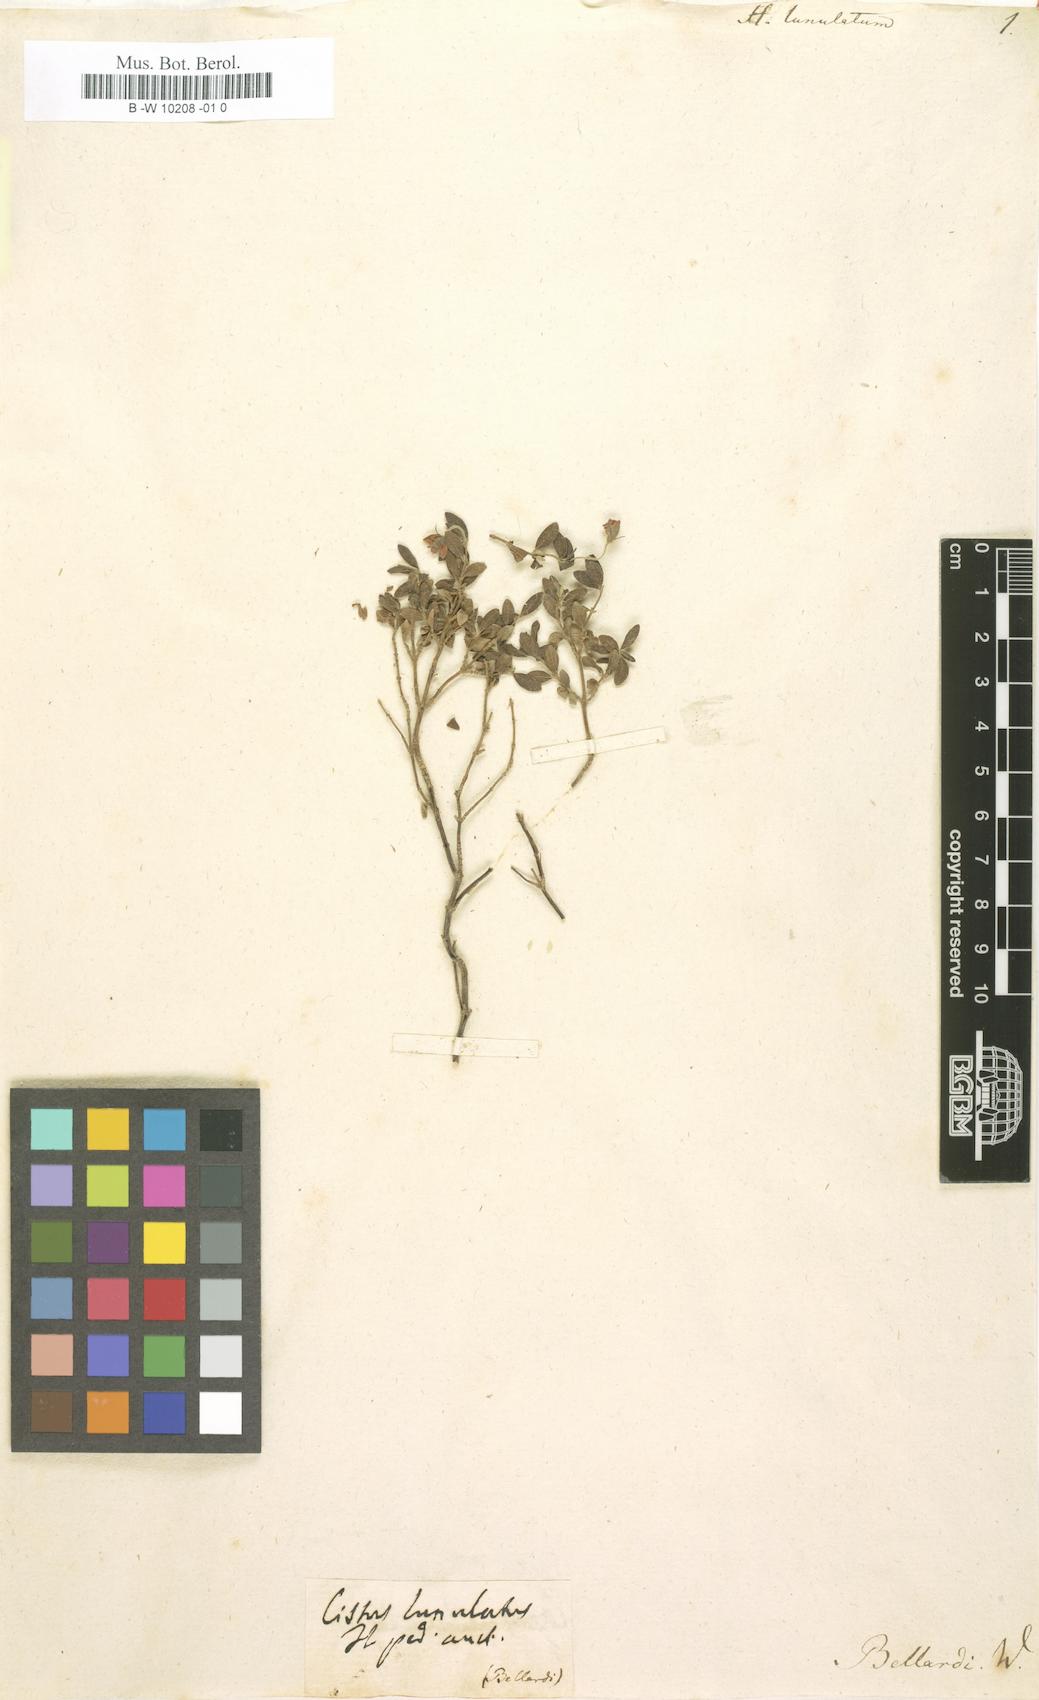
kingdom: Plantae
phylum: Tracheophyta
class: Magnoliopsida
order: Malvales
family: Cistaceae
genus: Helianthemum
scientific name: Helianthemum lunulatum
